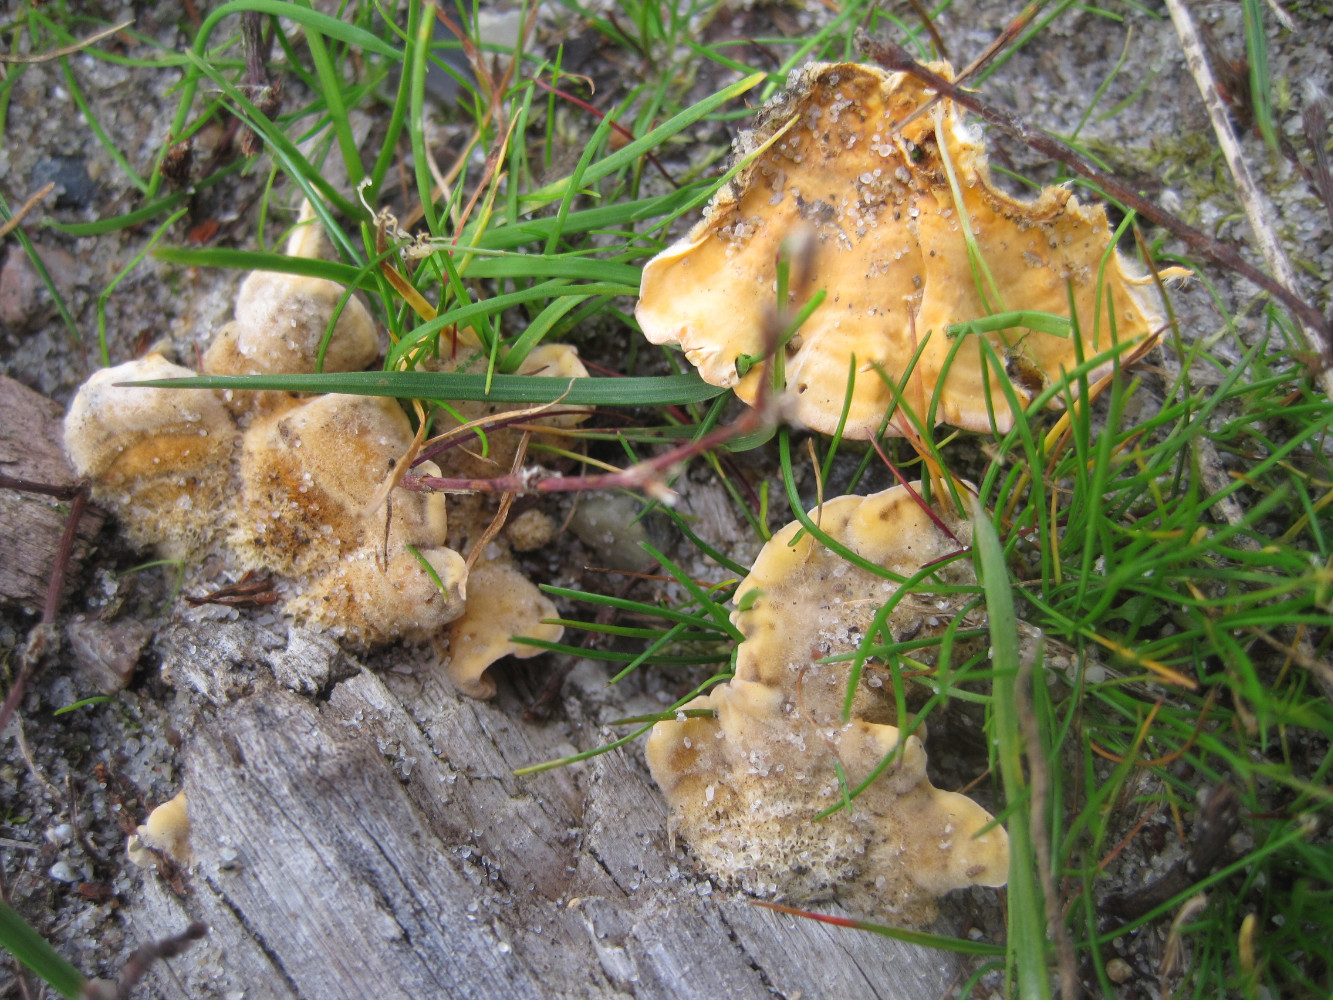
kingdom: Fungi
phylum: Basidiomycota
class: Agaricomycetes
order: Russulales
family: Stereaceae
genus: Stereum
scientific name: Stereum subtomentosum
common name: smuk lædersvamp
